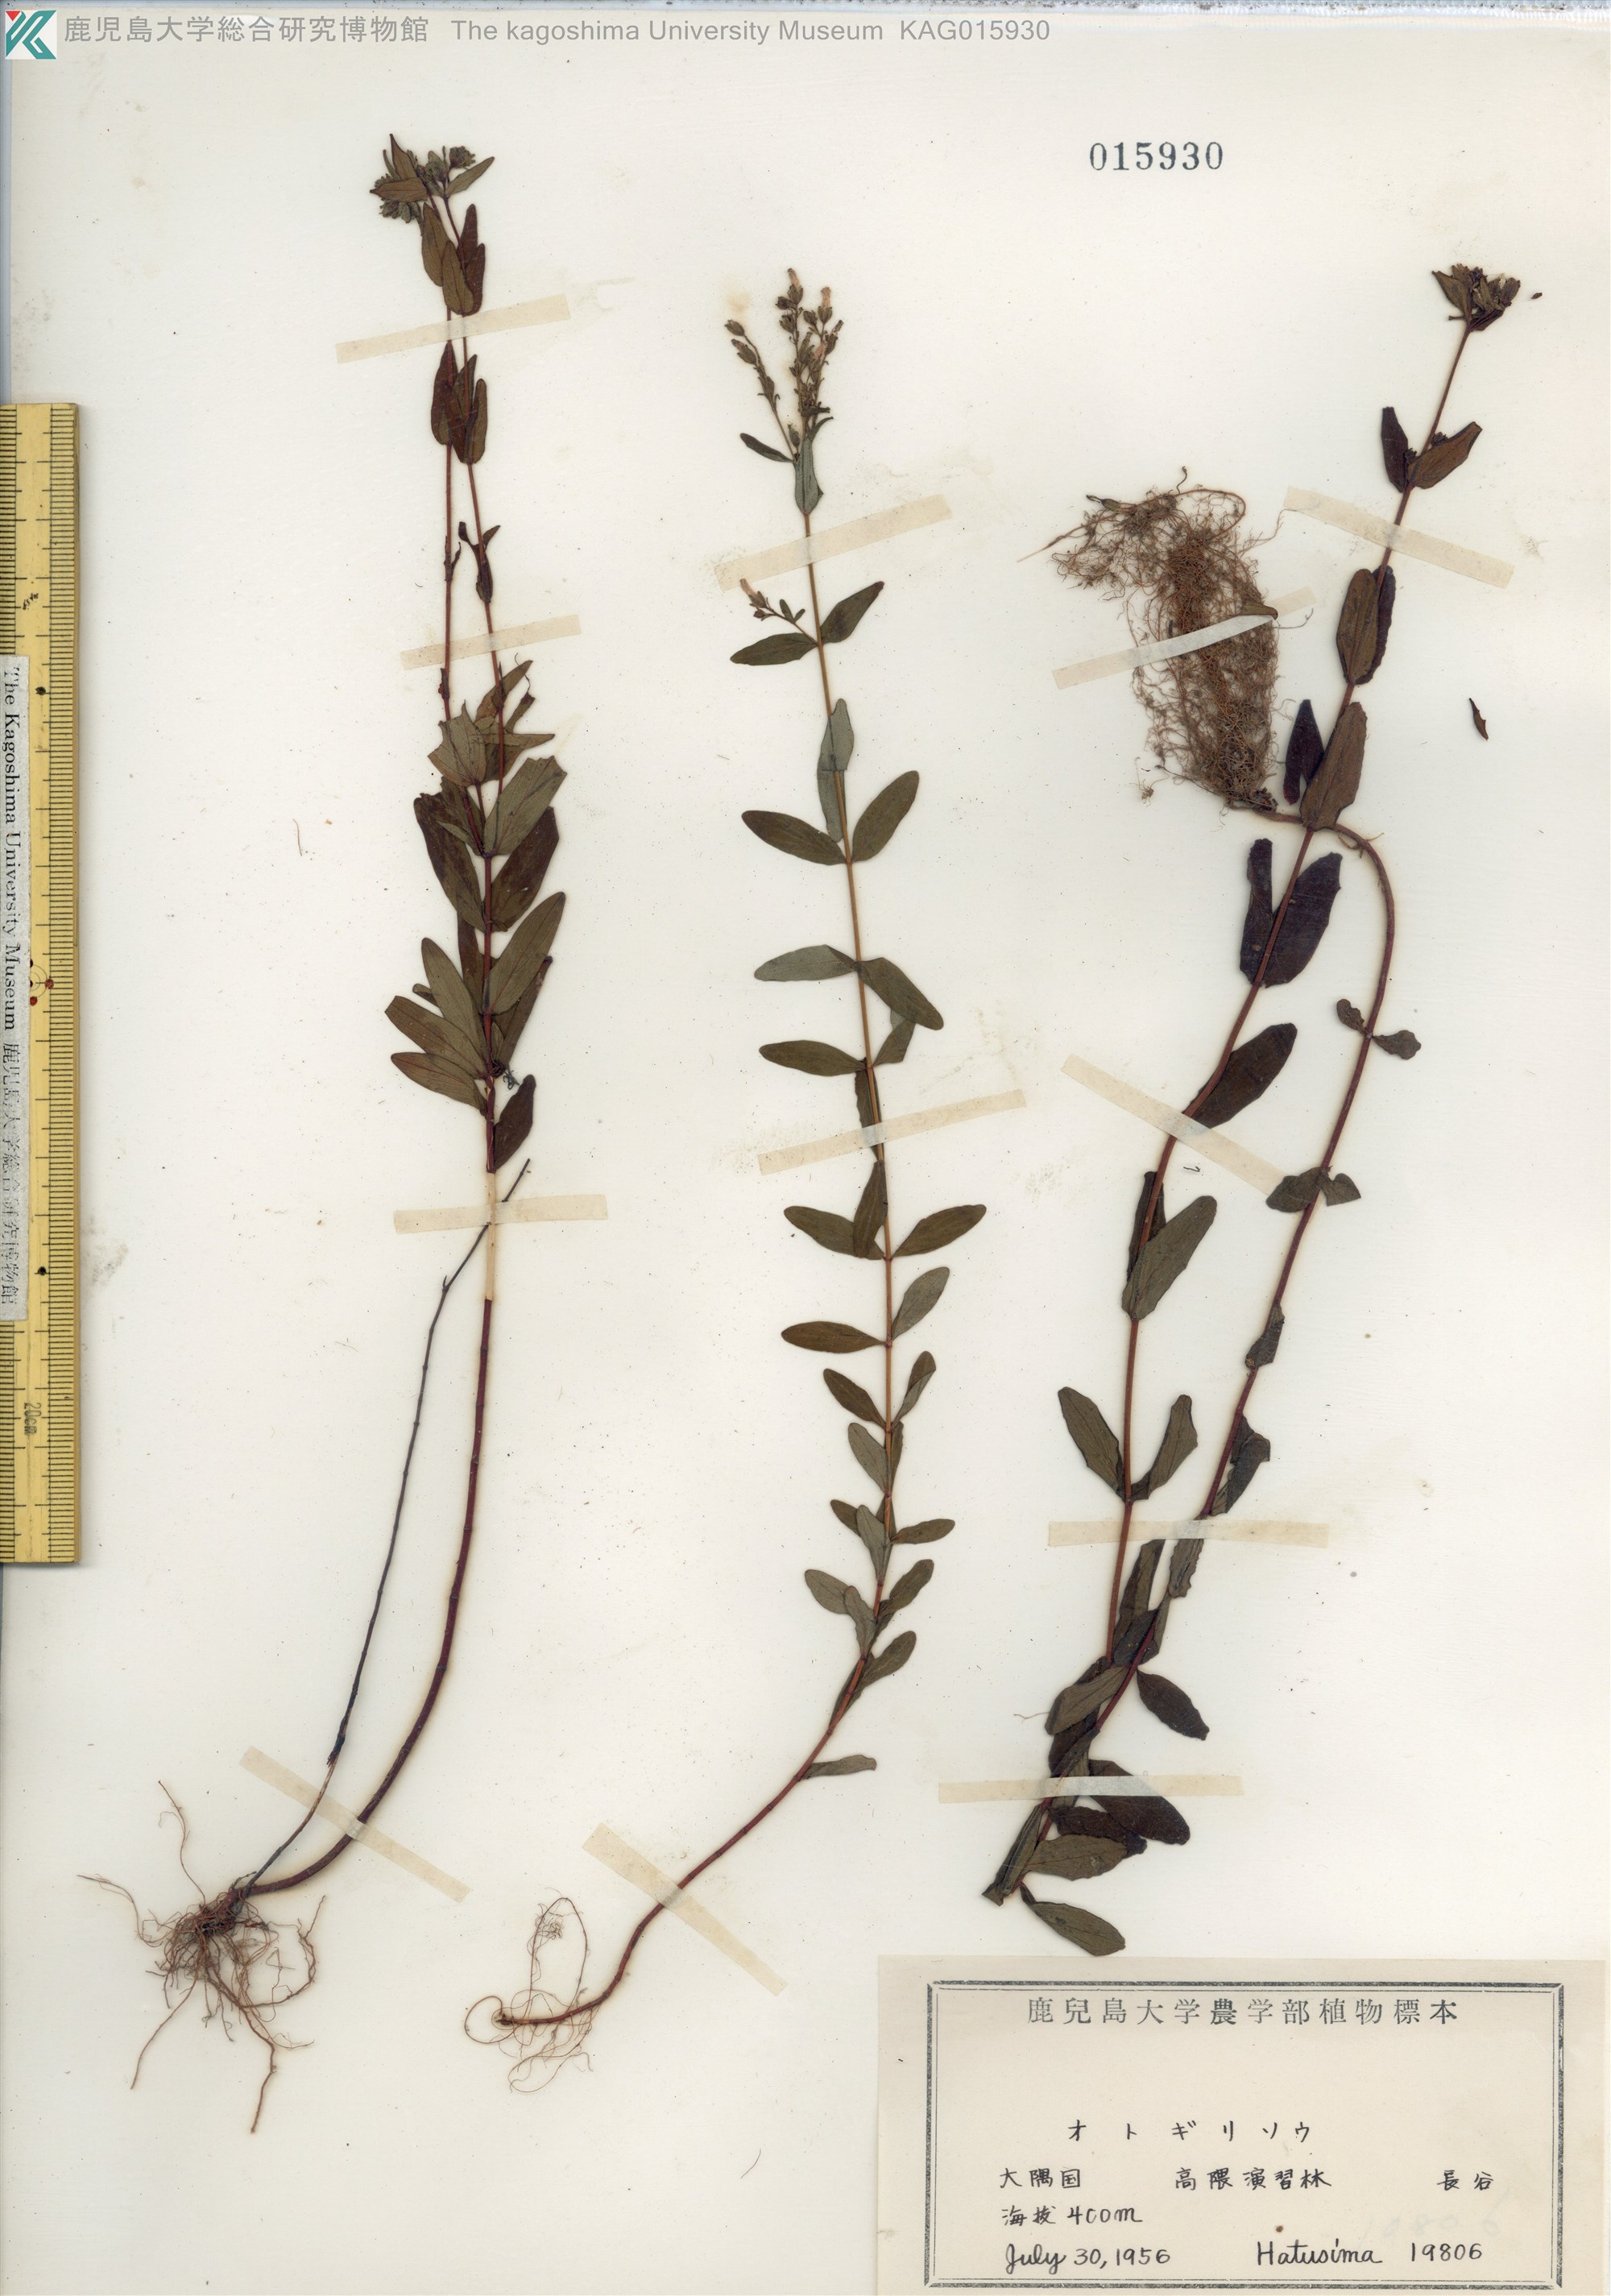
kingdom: Plantae
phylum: Tracheophyta
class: Magnoliopsida
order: Malpighiales
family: Hypericaceae
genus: Hypericum
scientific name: Hypericum erectum
